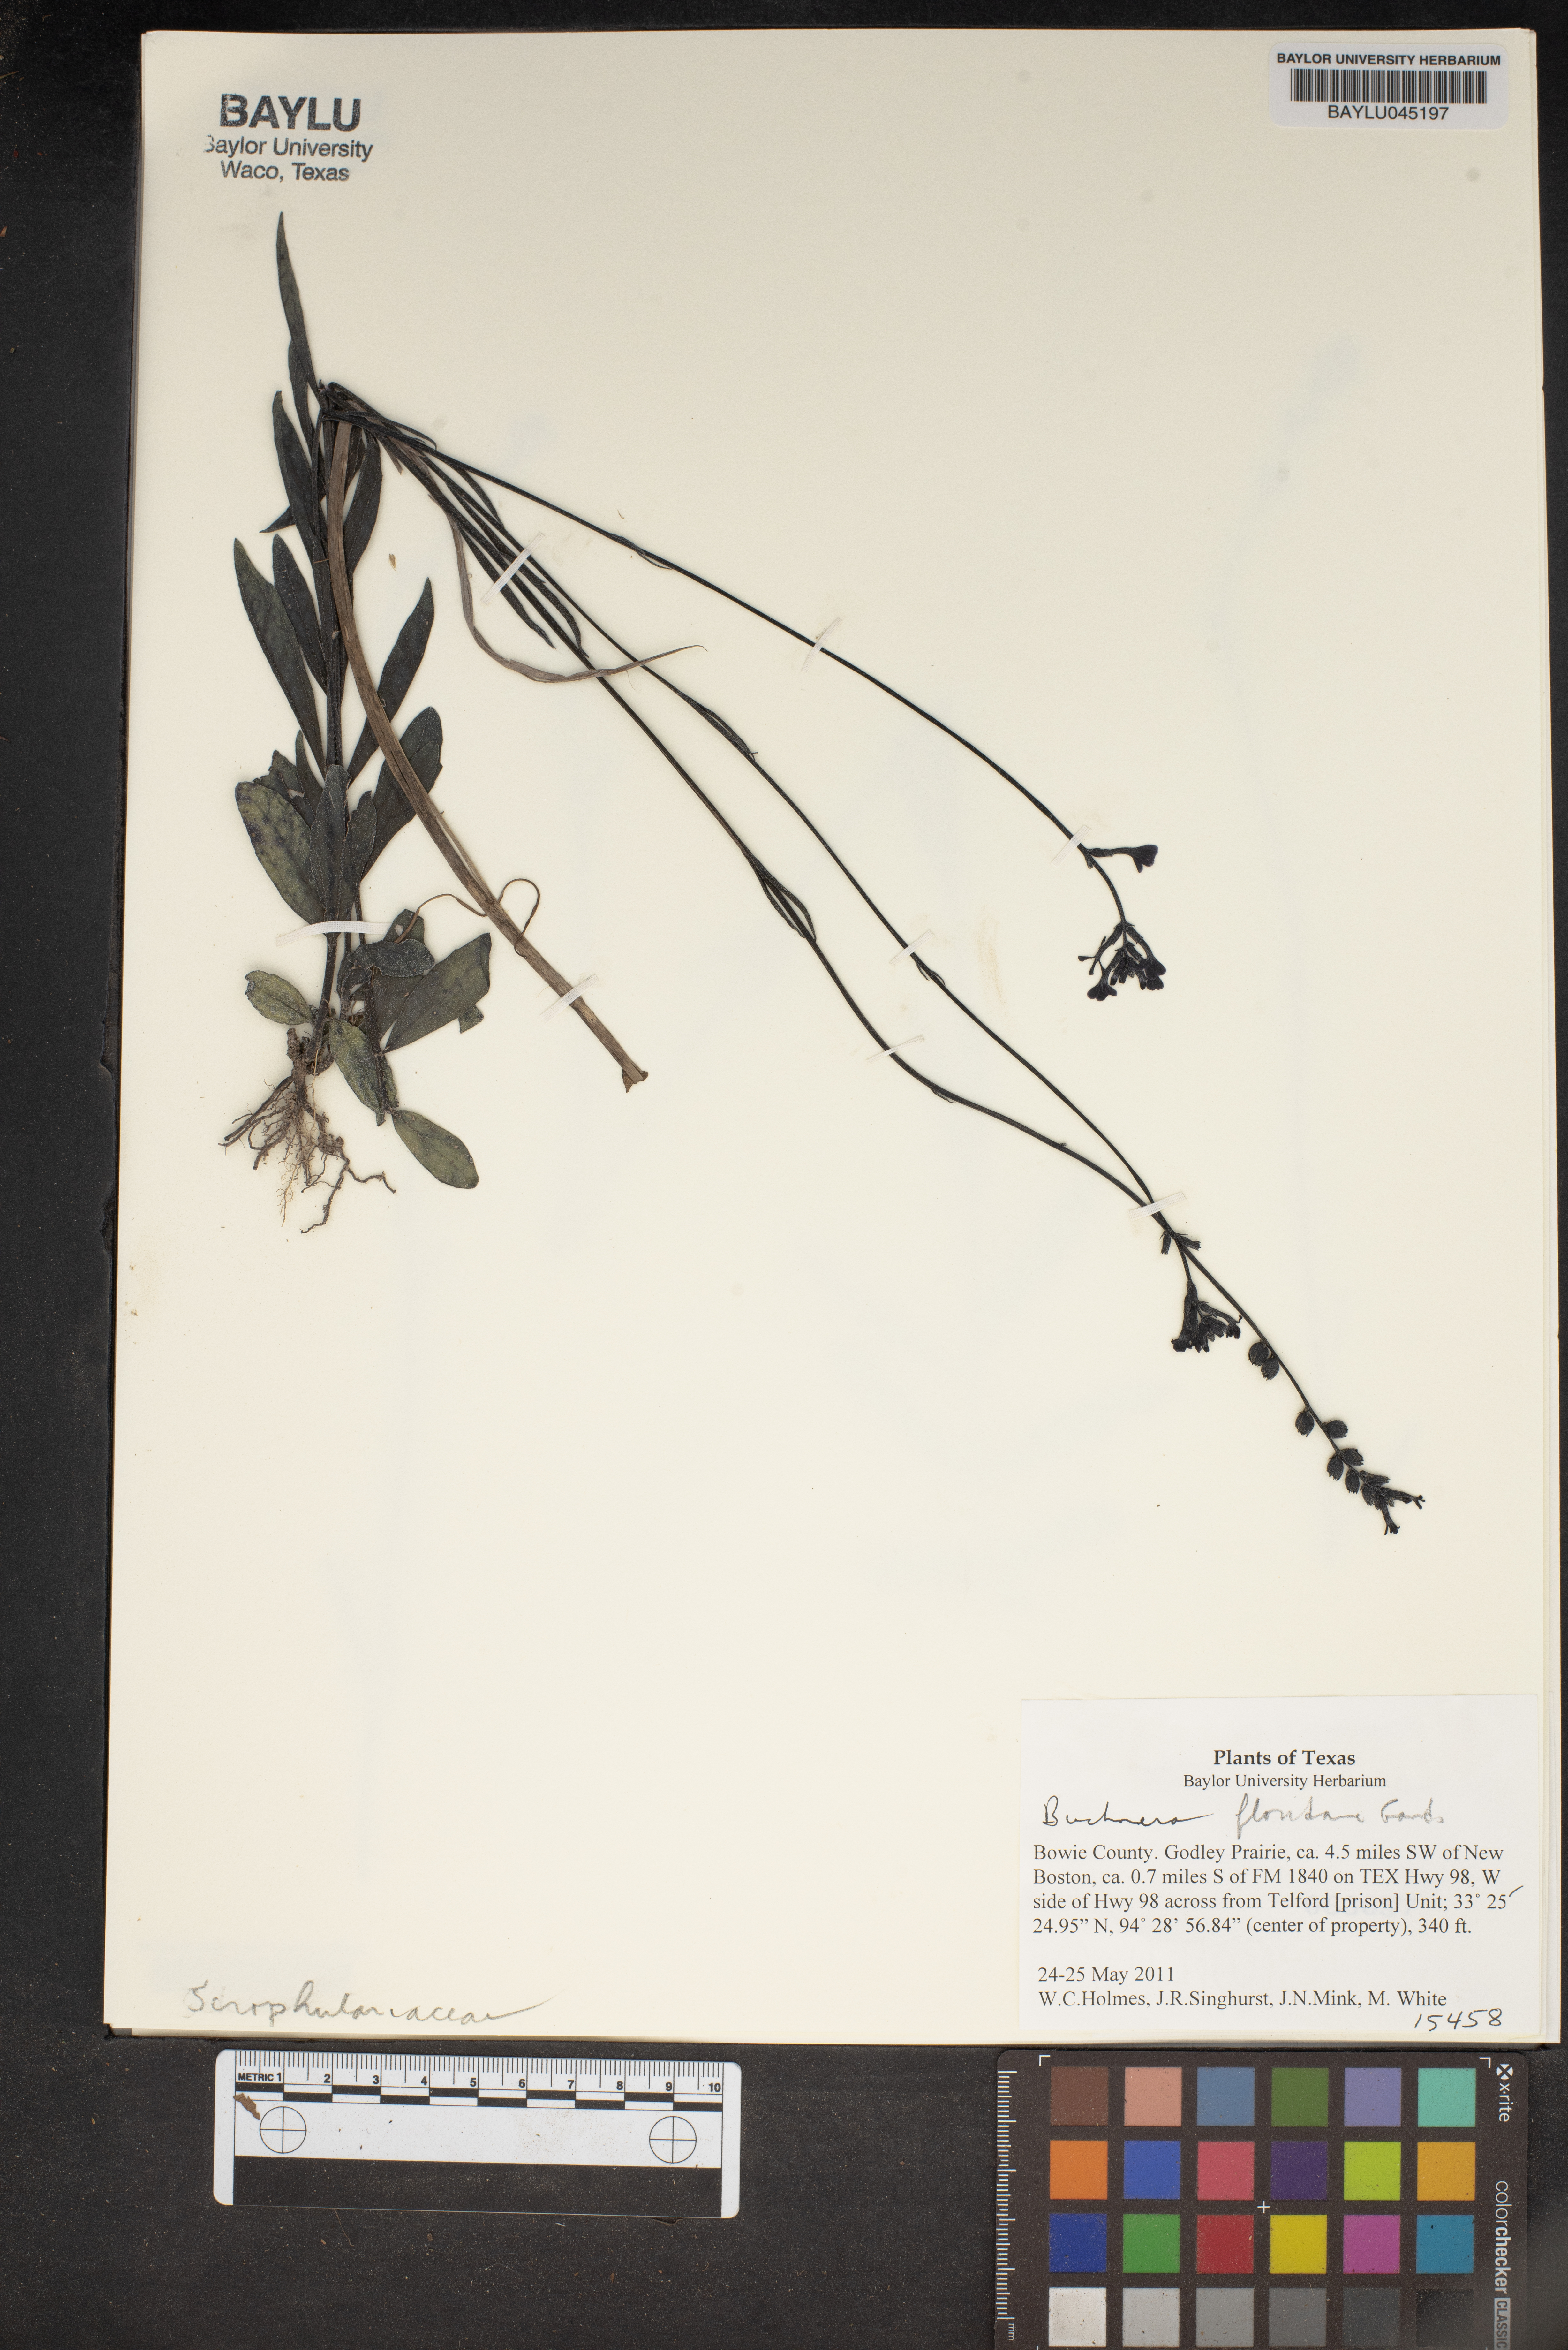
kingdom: Plantae
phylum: Tracheophyta
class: Magnoliopsida
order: Lamiales
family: Orobanchaceae
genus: Buchnera
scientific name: Buchnera floridana
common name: Florida bluehearts
